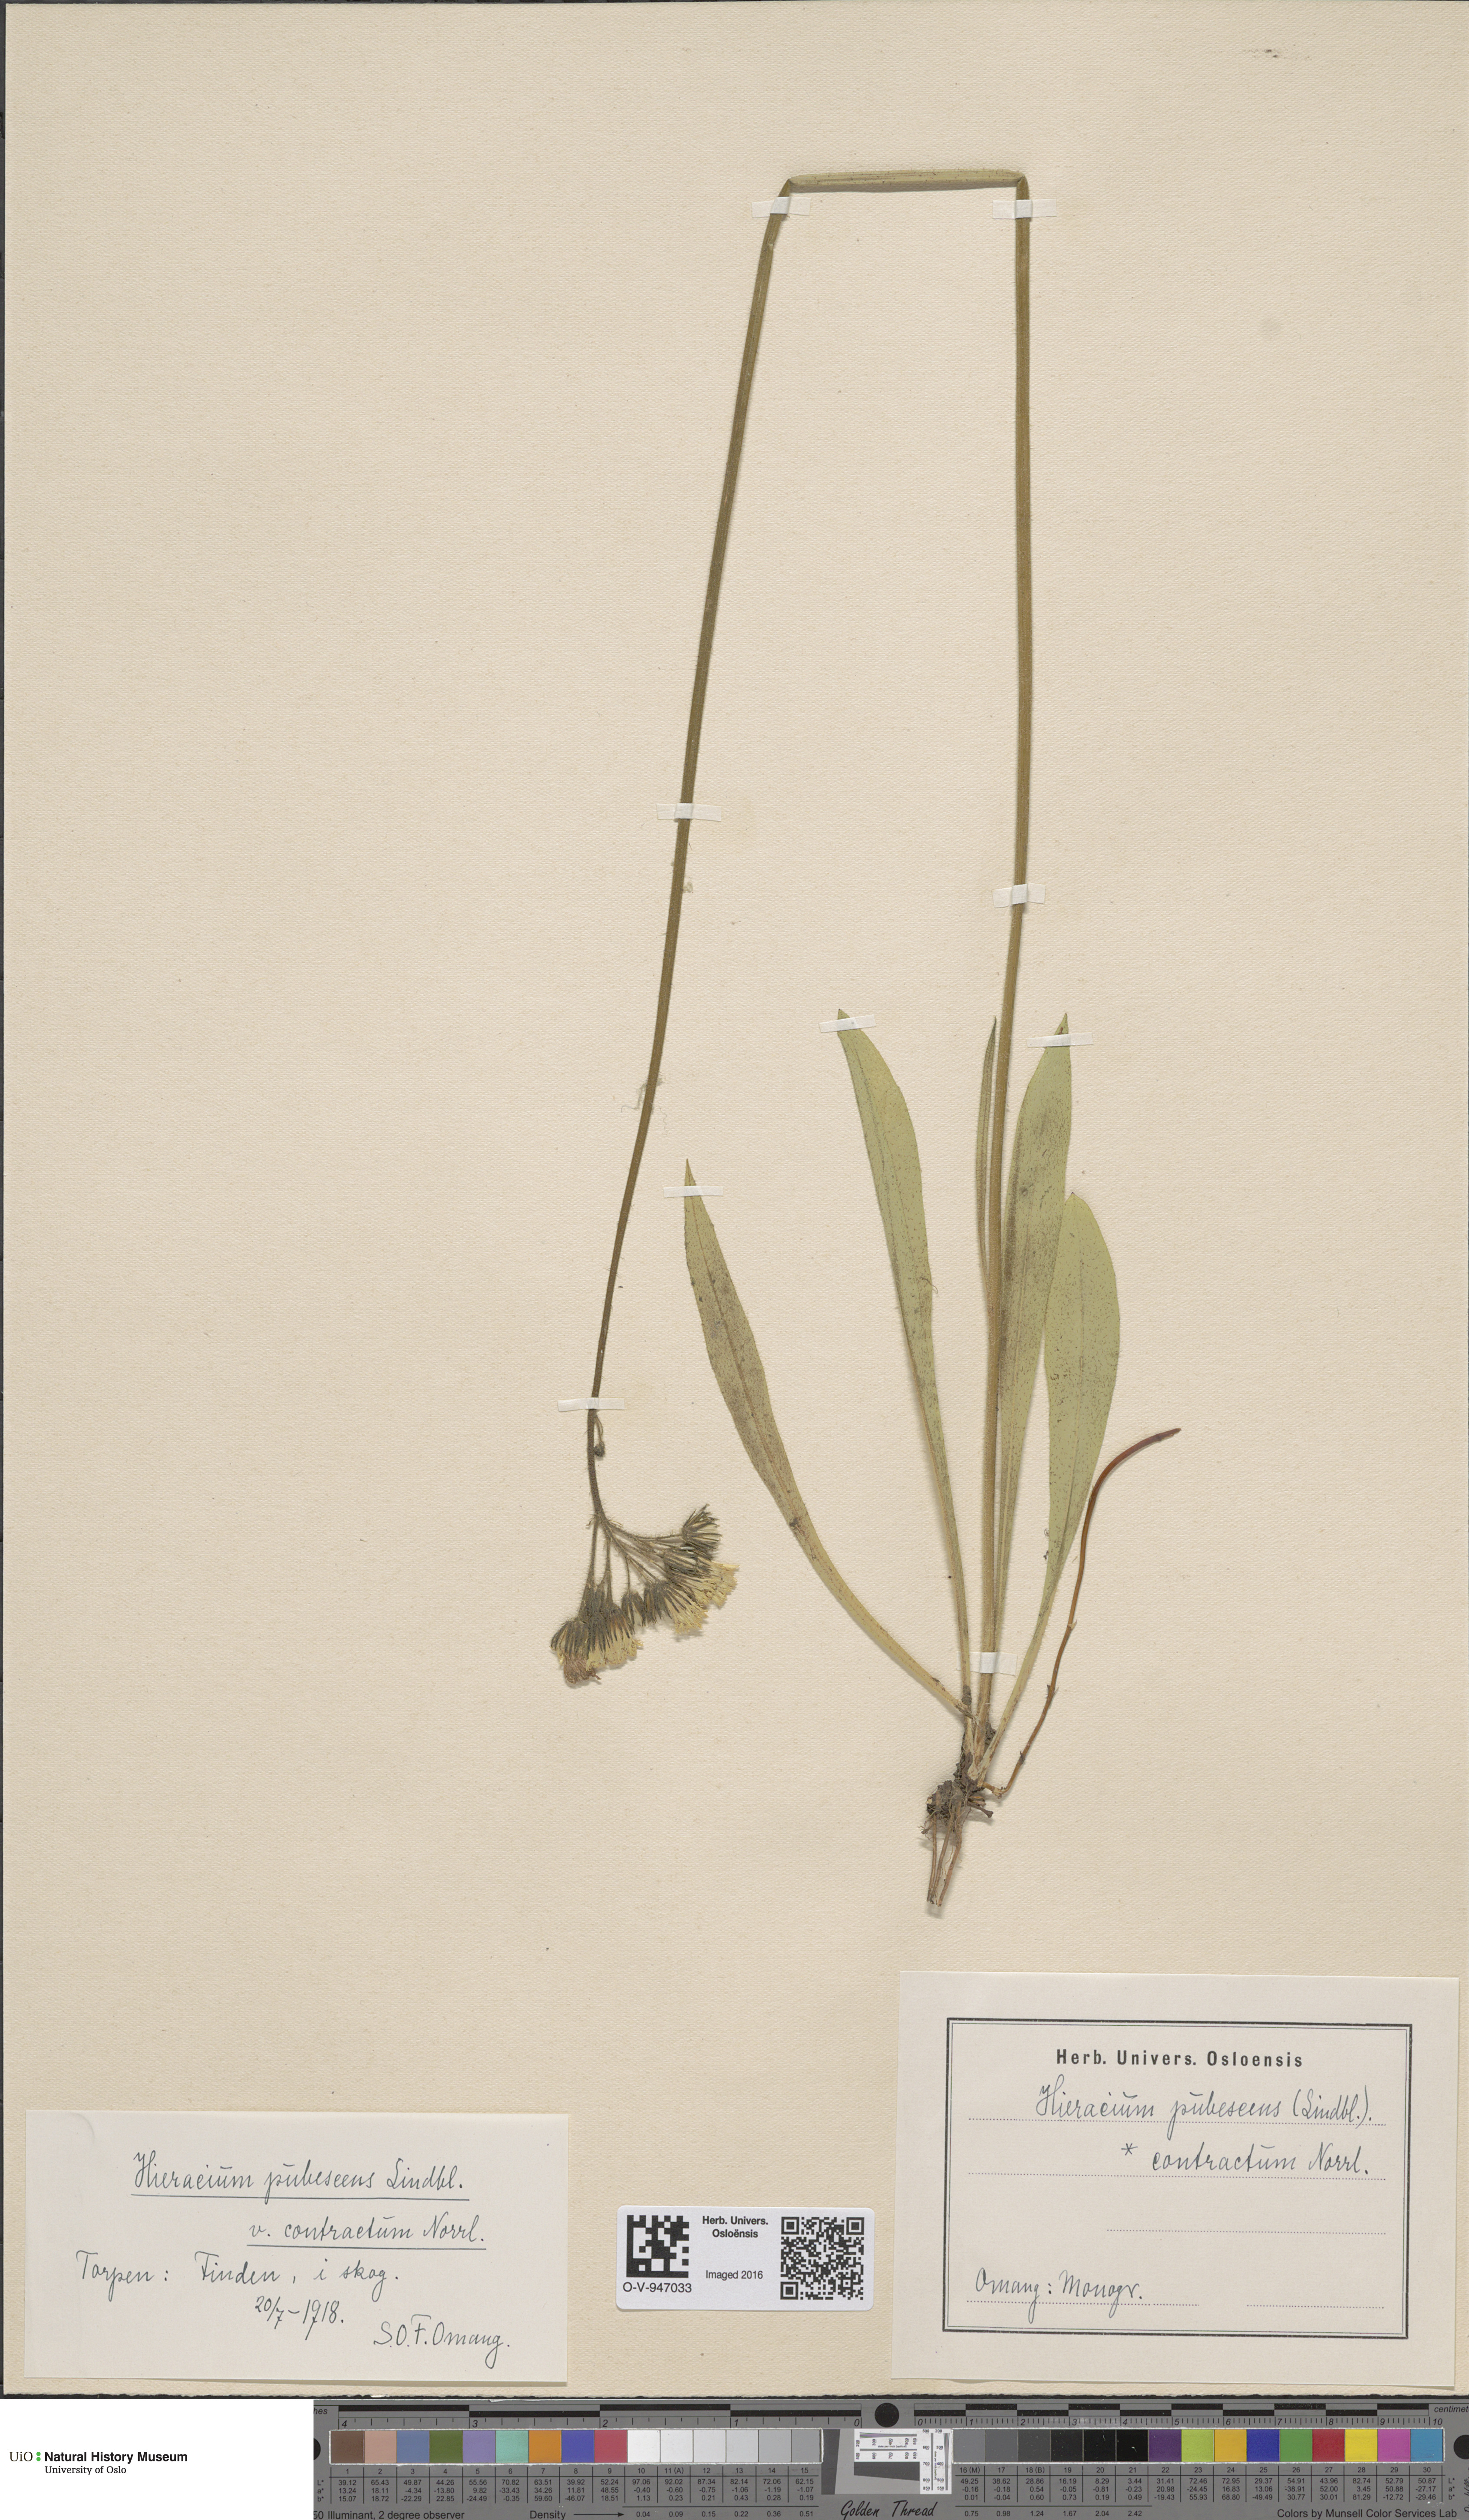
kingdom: Plantae
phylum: Tracheophyta
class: Magnoliopsida
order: Asterales
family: Asteraceae
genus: Pilosella
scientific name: Pilosella cymosa
